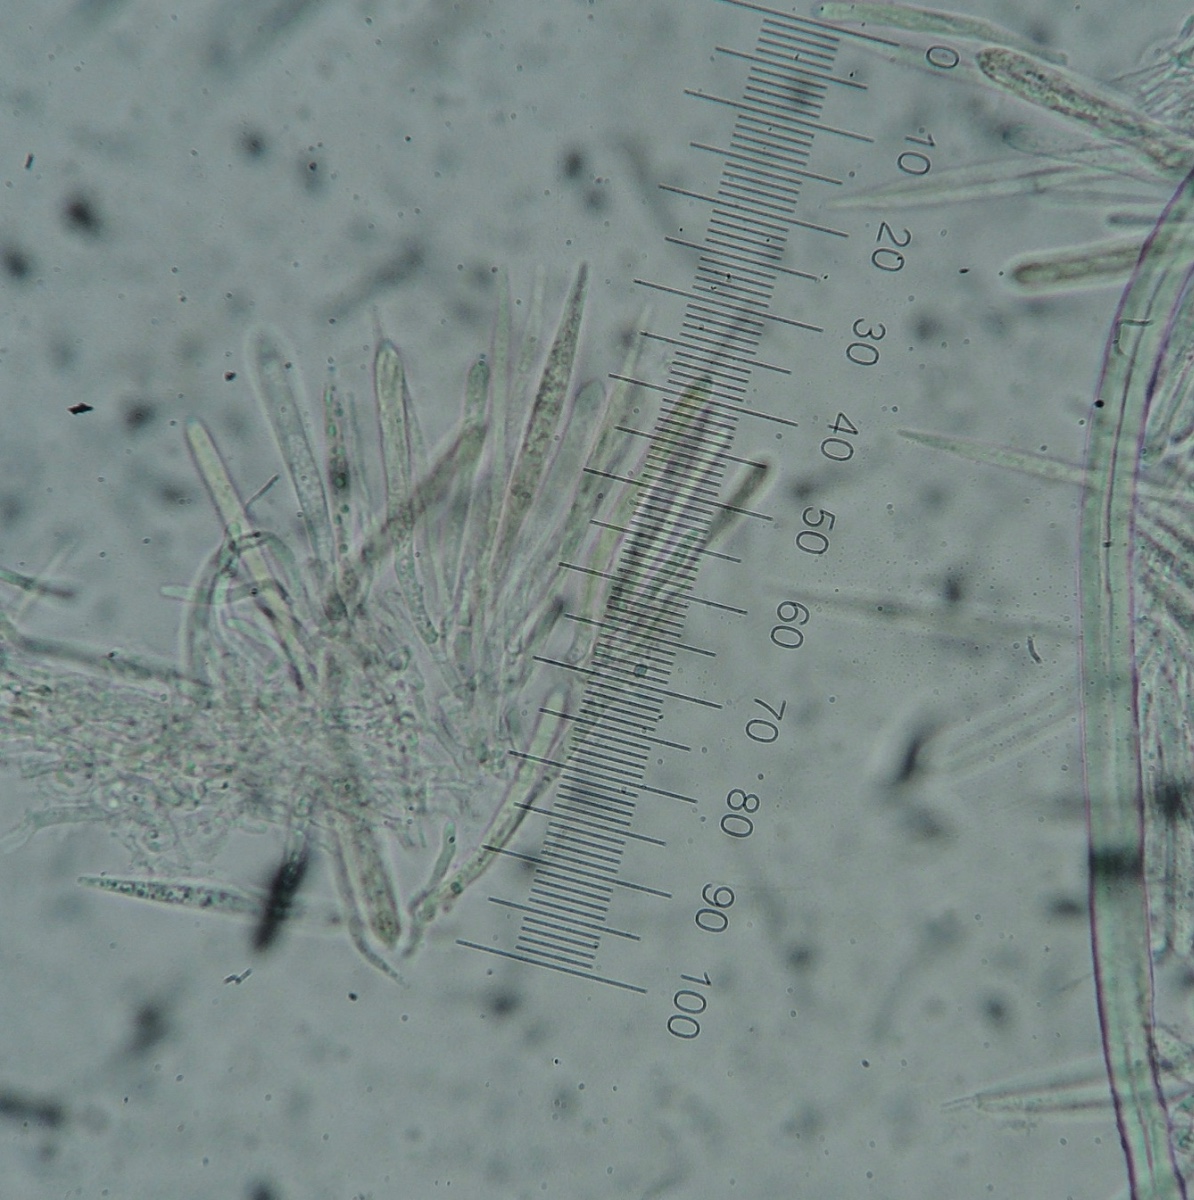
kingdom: Fungi
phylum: Ascomycota
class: Leotiomycetes
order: Helotiales
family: Lachnaceae
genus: Lachnum
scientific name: Lachnum diminutum
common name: sommer-frynseskive
